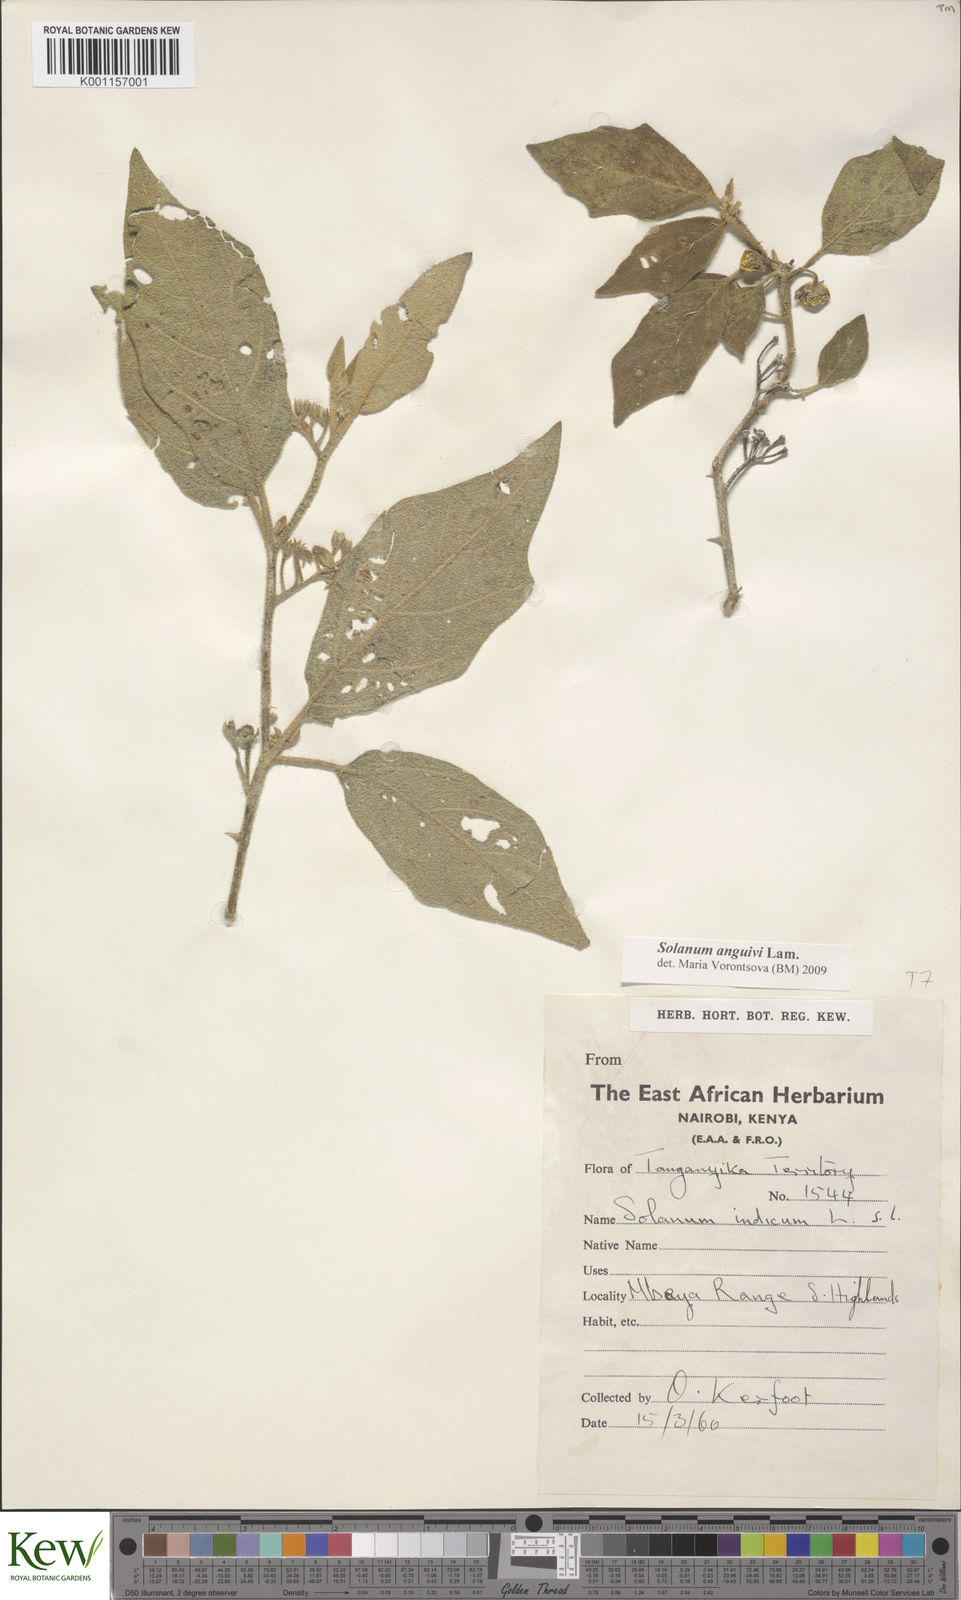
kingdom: Plantae
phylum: Tracheophyta
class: Magnoliopsida
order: Solanales
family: Solanaceae
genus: Solanum
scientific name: Solanum anguivi
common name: Forest bitterberry
